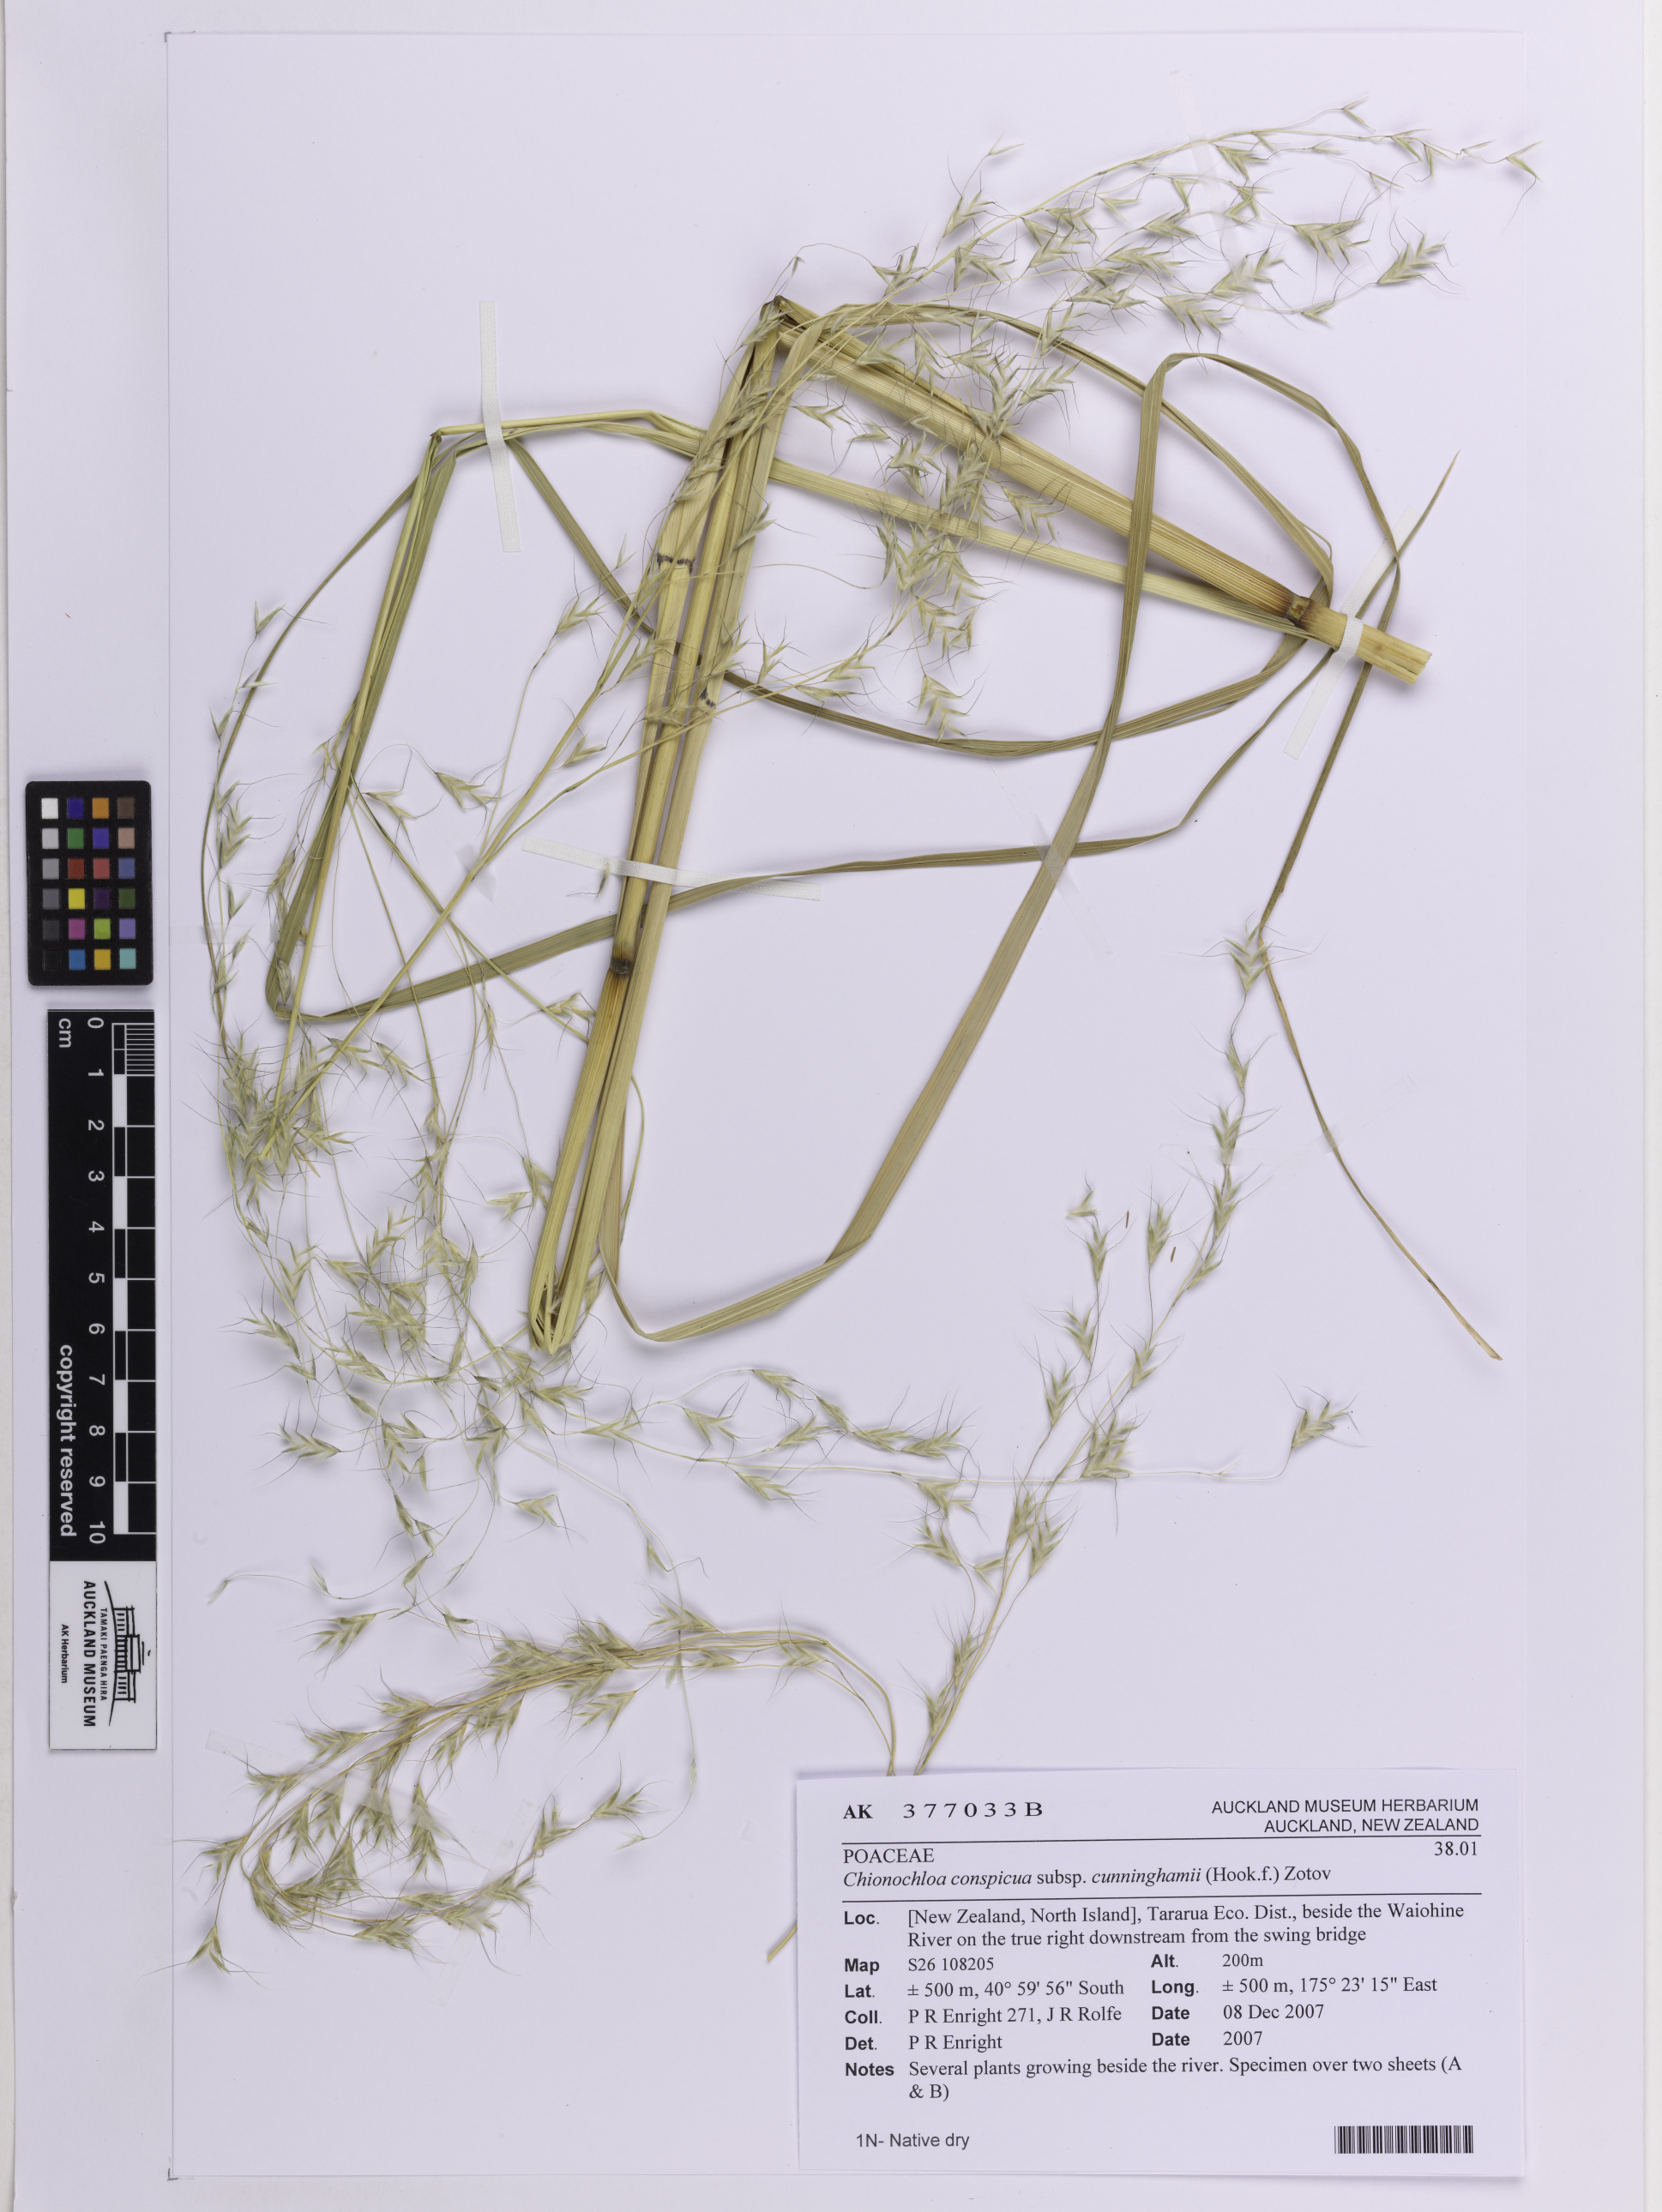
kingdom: Plantae
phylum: Tracheophyta
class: Liliopsida
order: Poales
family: Poaceae
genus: Chionochloa
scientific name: Chionochloa conspicua
